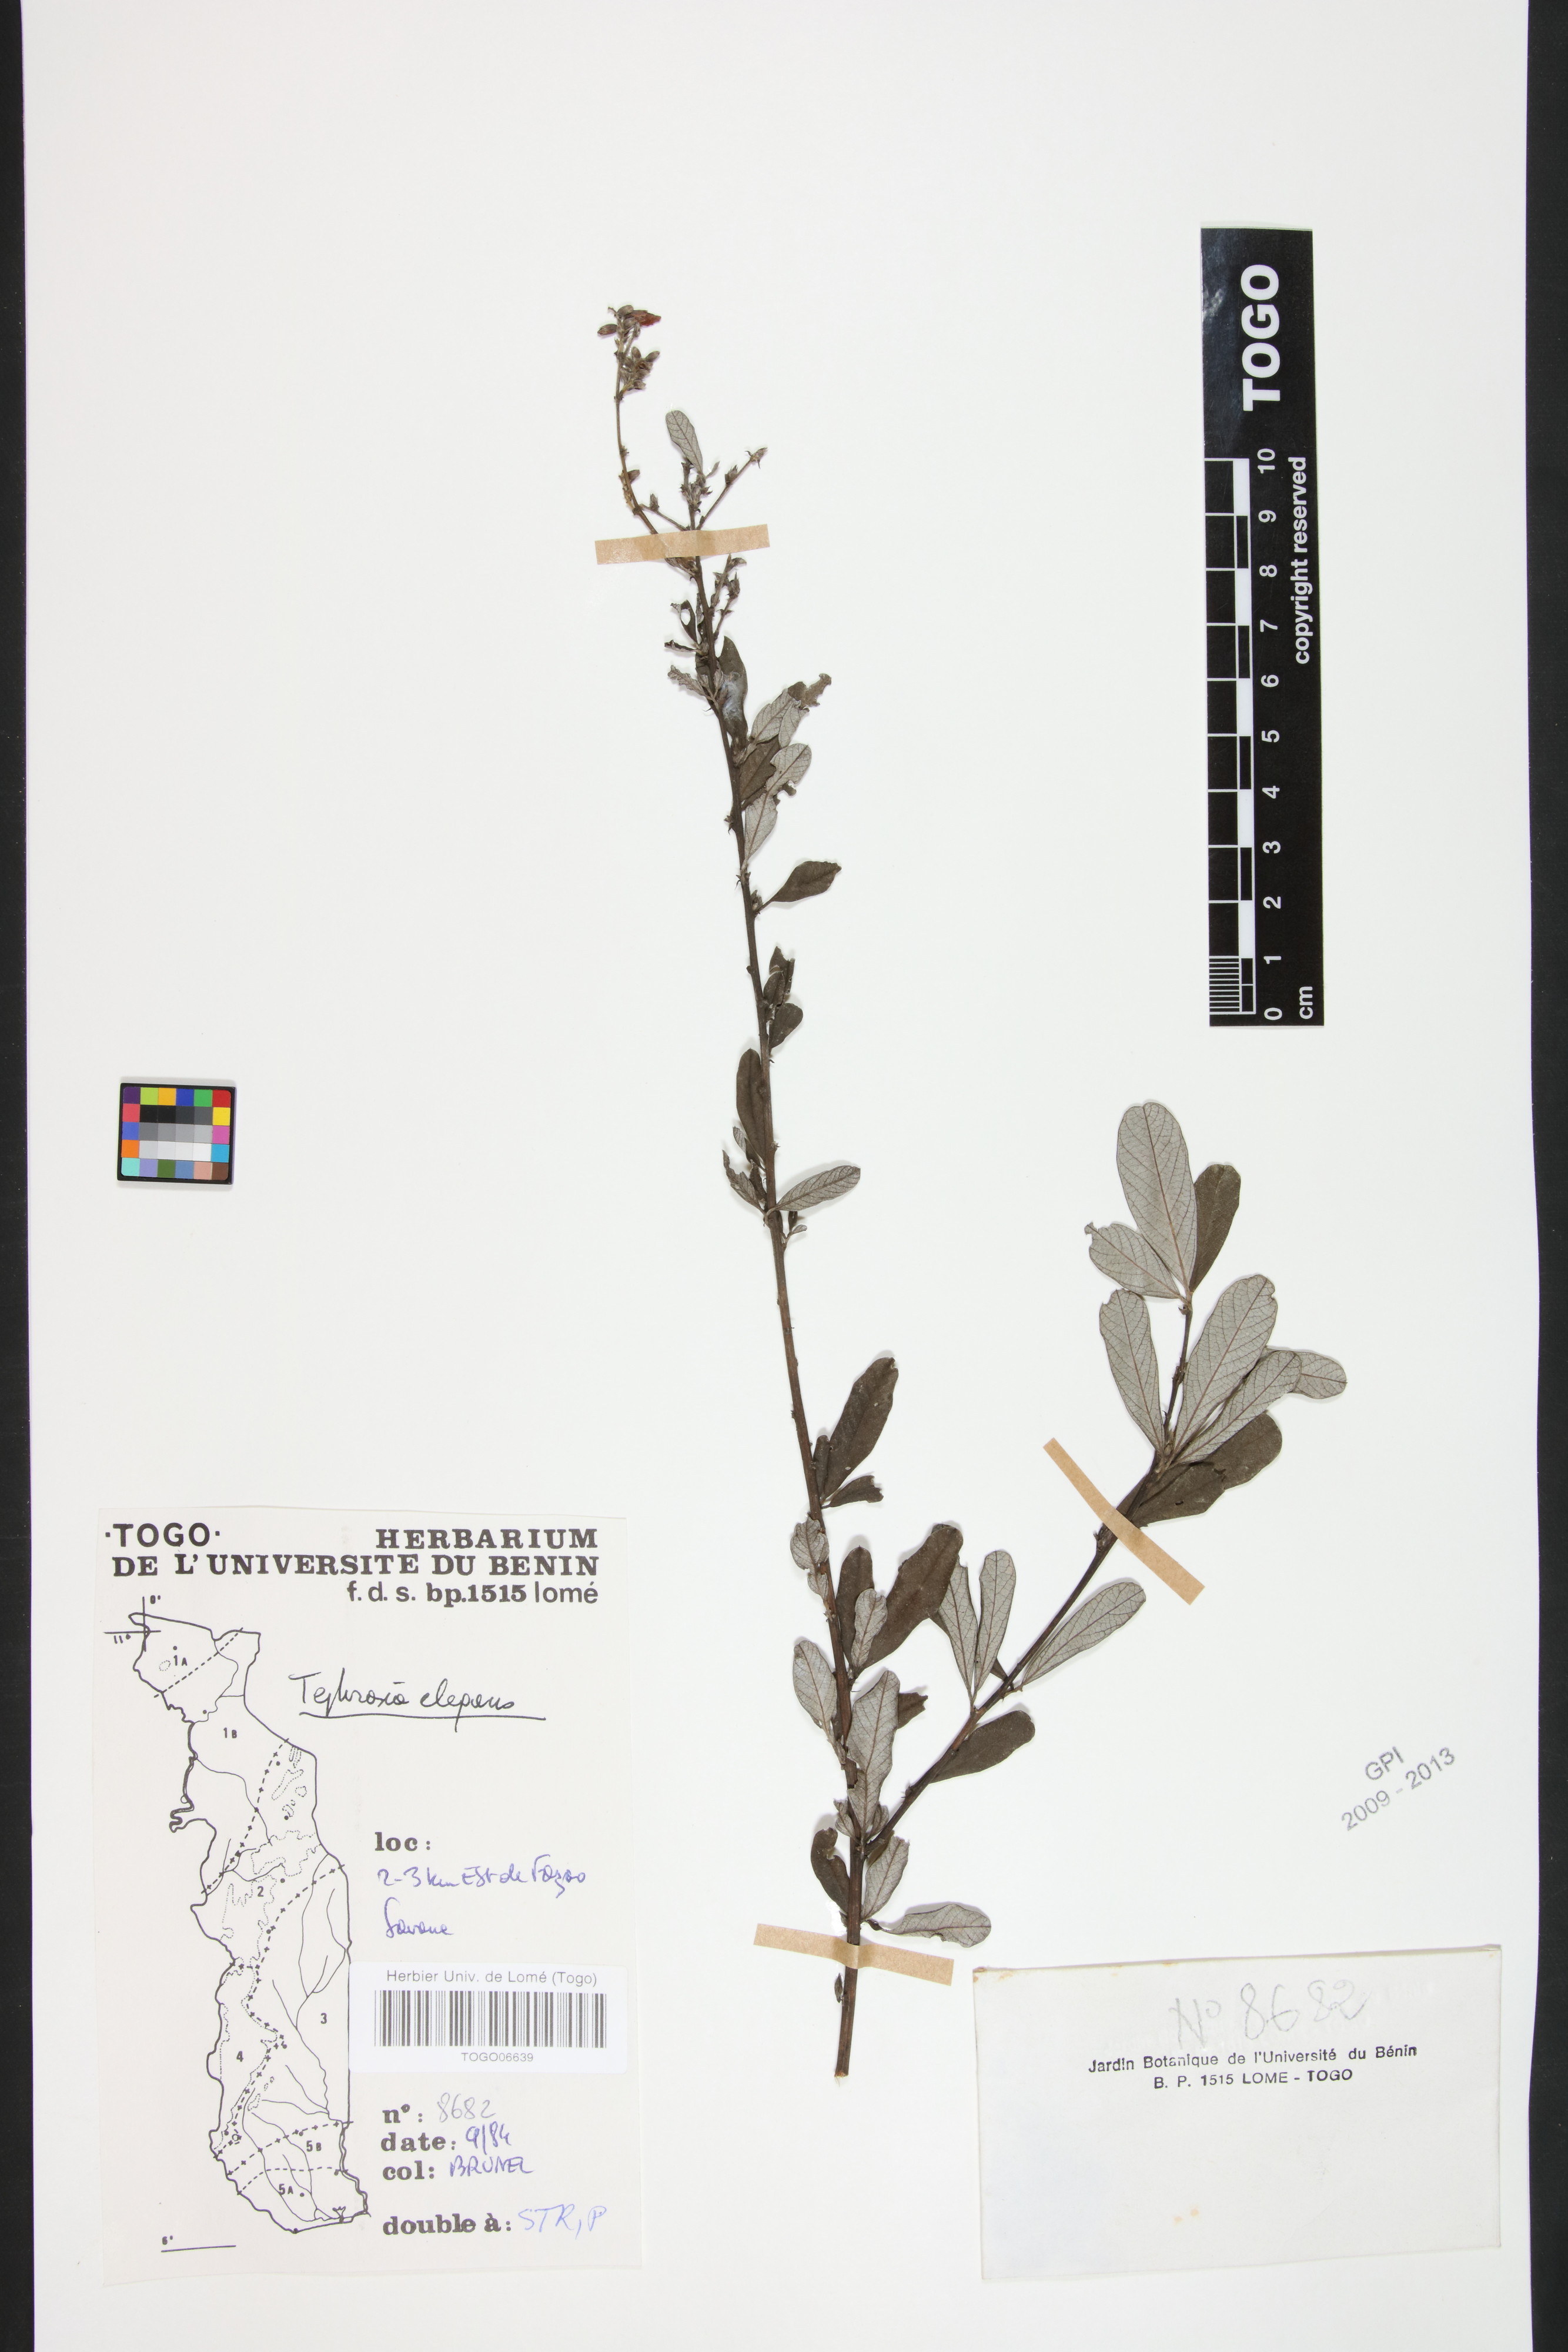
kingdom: Plantae
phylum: Tracheophyta
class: Magnoliopsida
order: Fabales
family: Fabaceae
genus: Tephrosia
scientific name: Tephrosia elegans
